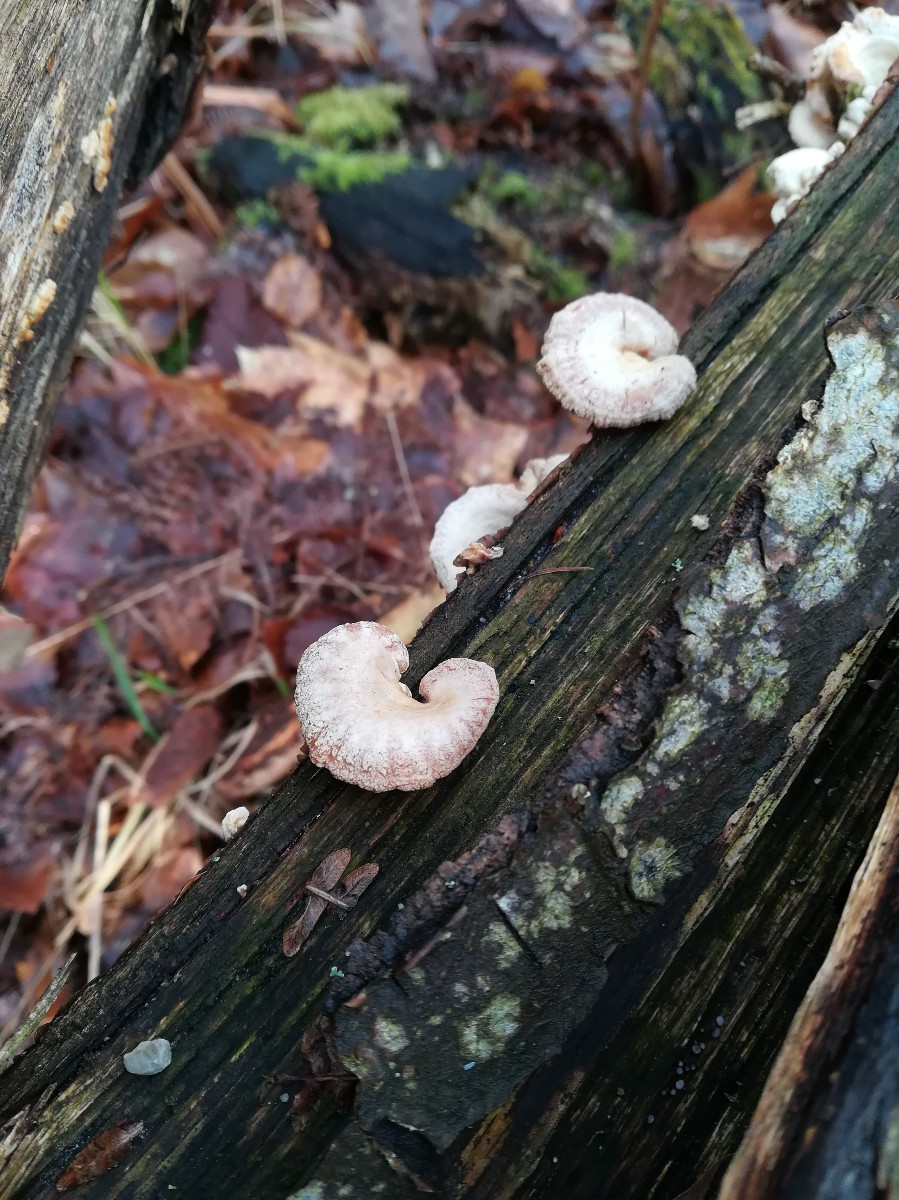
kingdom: Fungi
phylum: Basidiomycota
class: Agaricomycetes
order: Agaricales
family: Mycenaceae
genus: Panellus
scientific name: Panellus stipticus
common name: kliddet epaulethat
